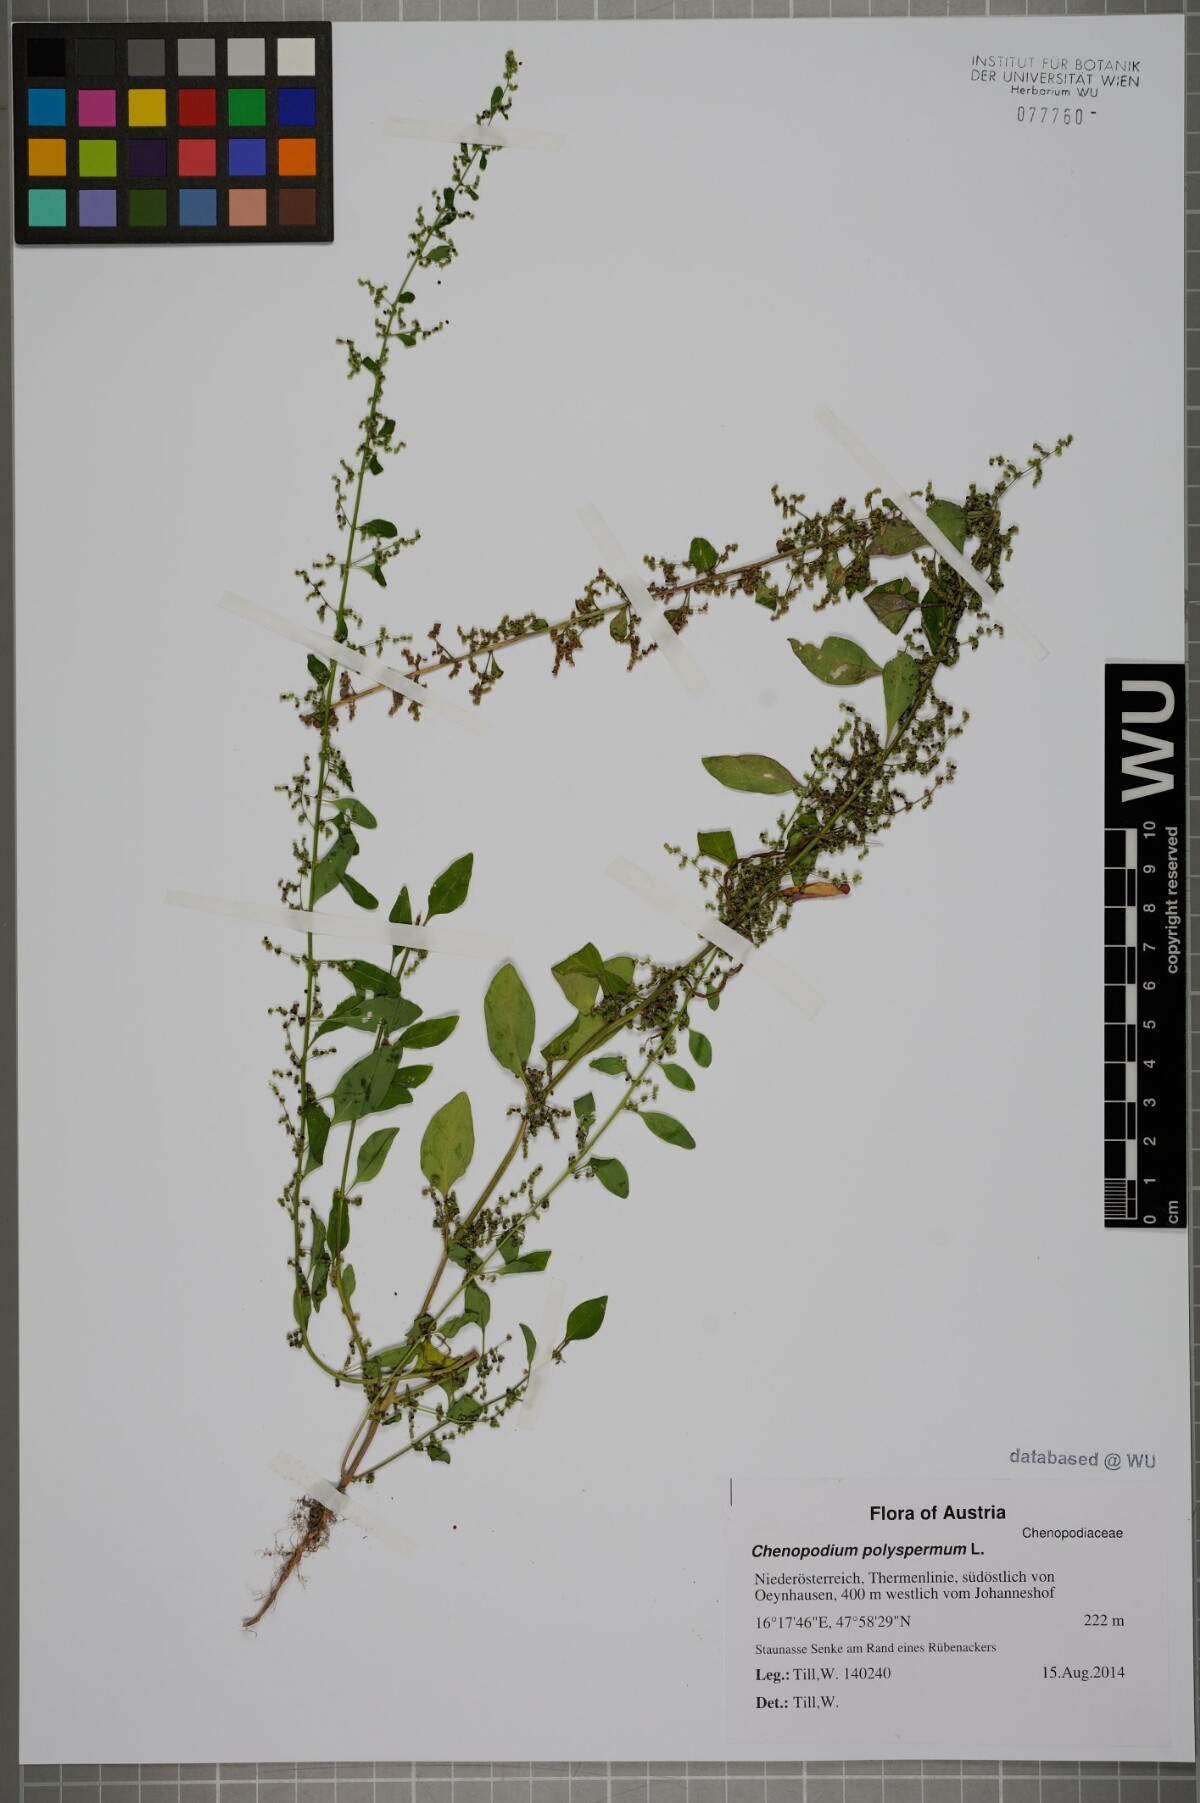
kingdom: Plantae
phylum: Tracheophyta
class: Magnoliopsida
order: Caryophyllales
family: Amaranthaceae
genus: Lipandra
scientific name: Lipandra polysperma
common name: Many-seed goosefoot
